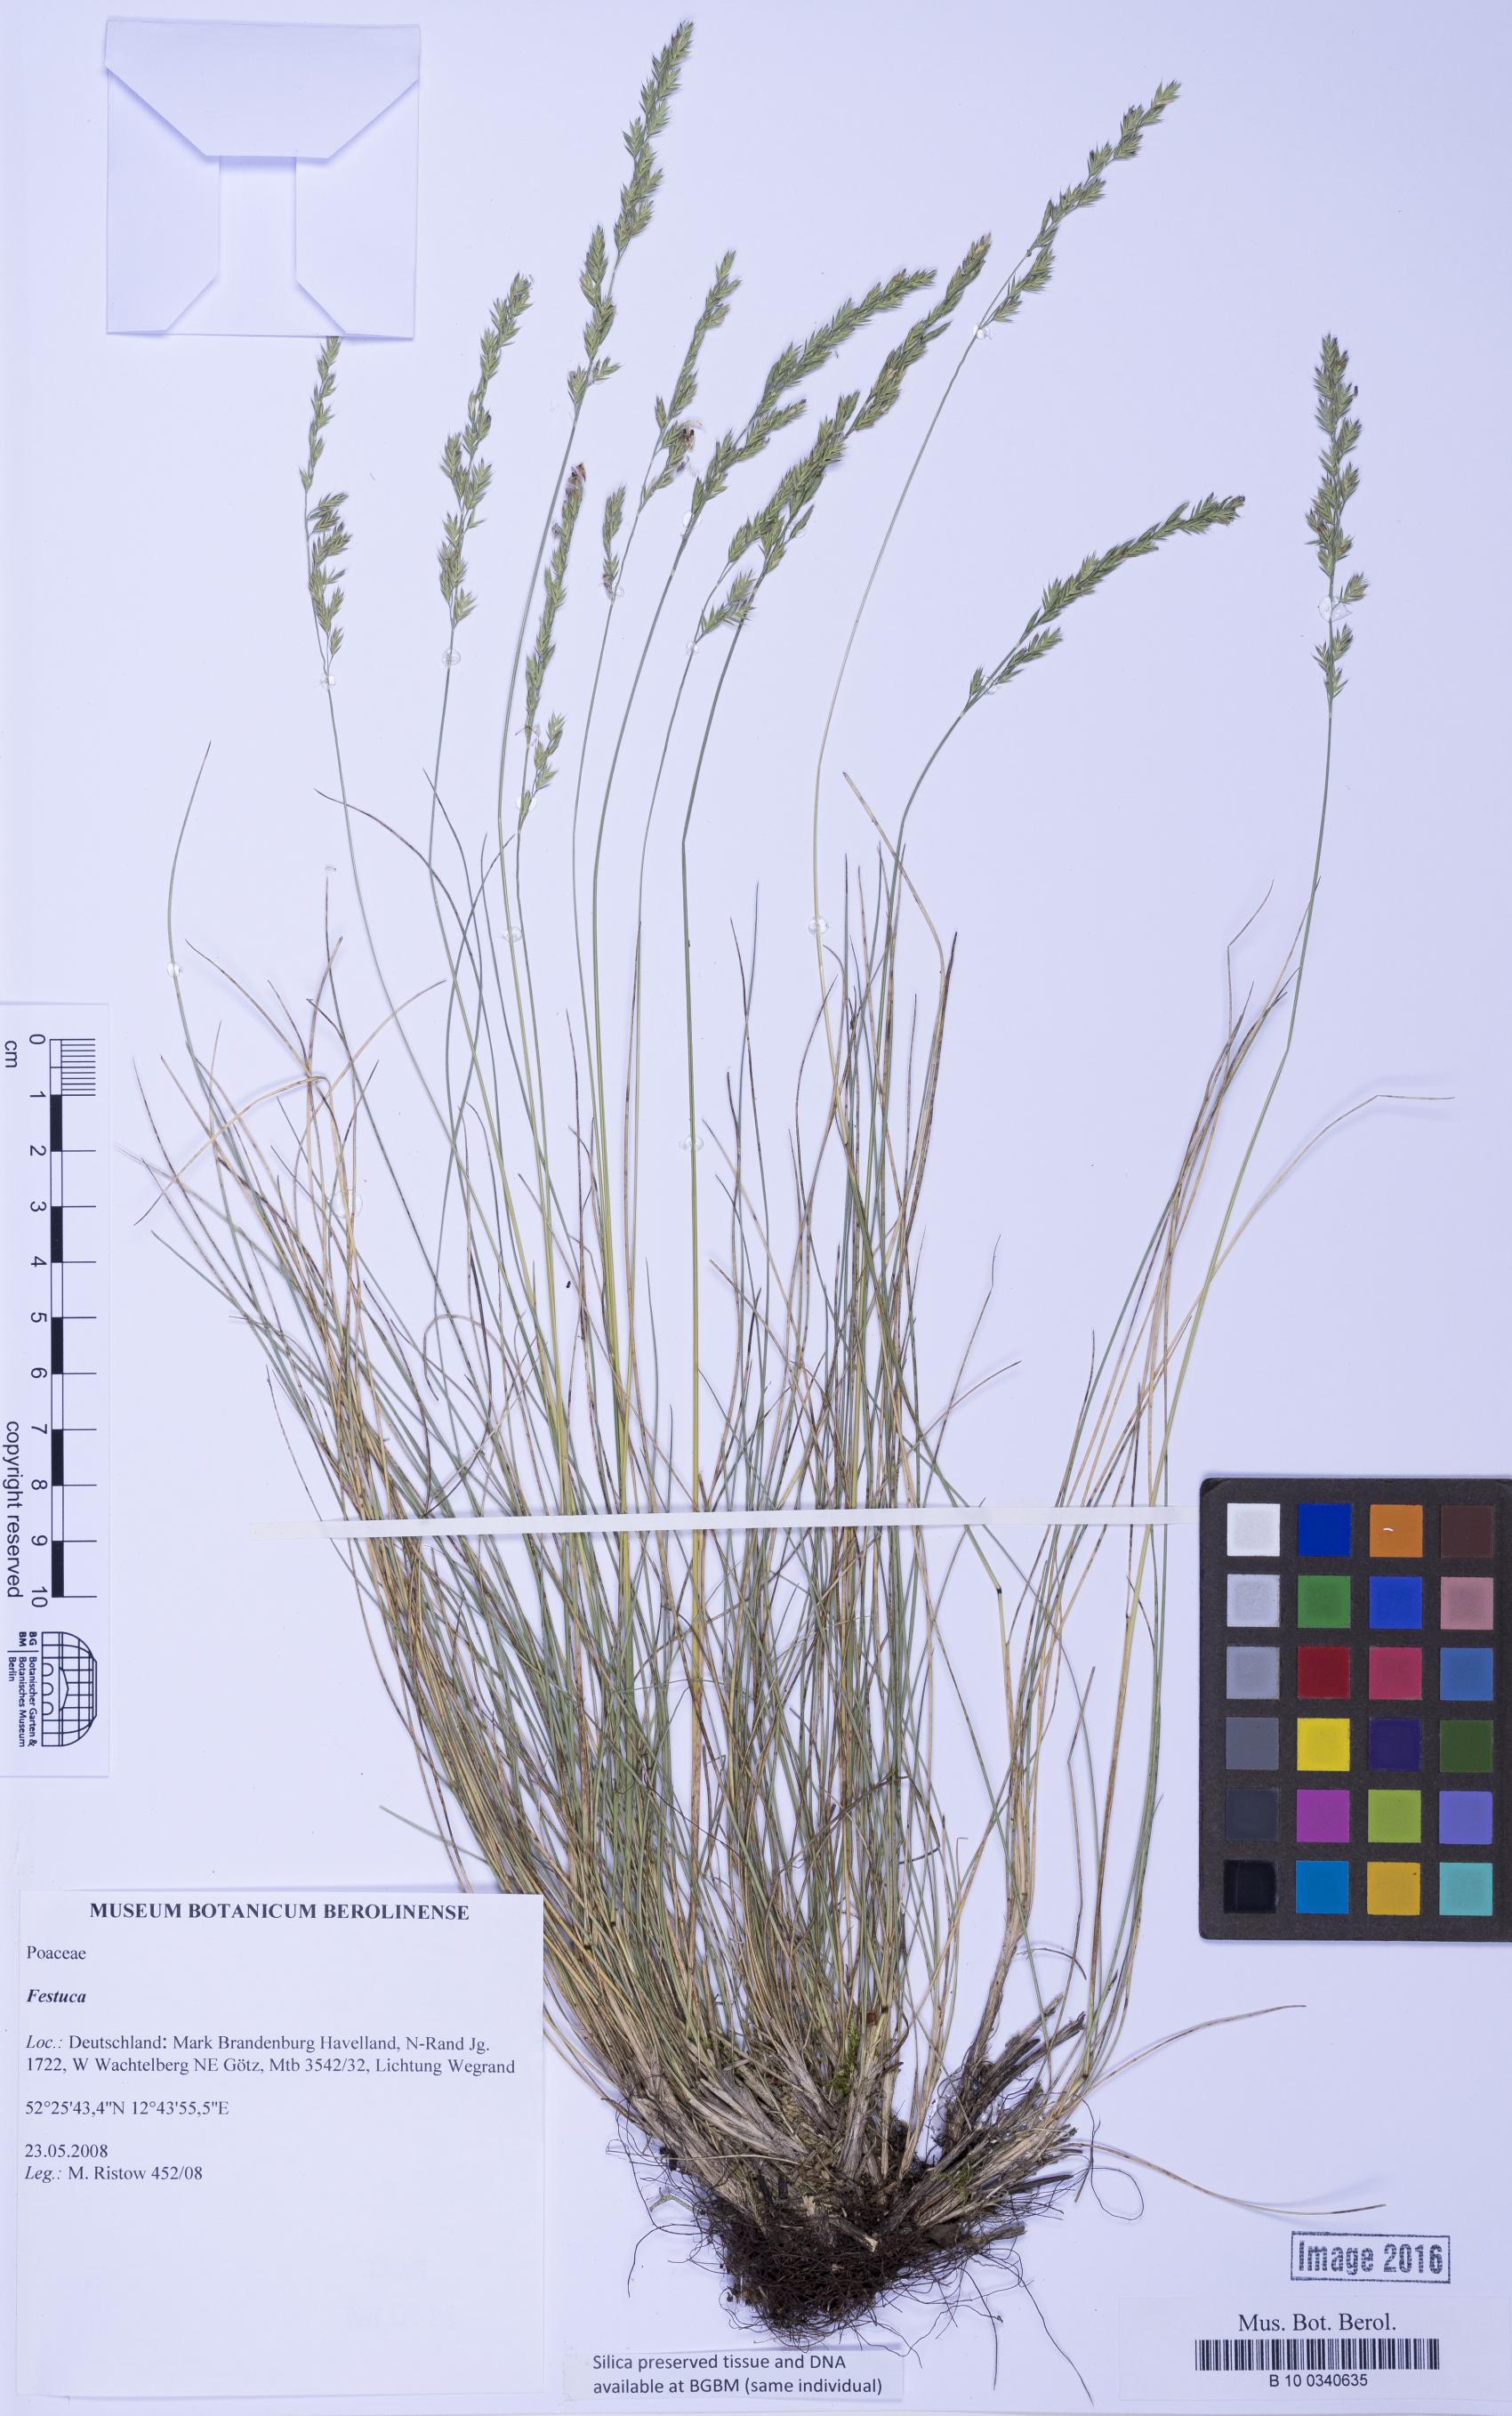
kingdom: Plantae
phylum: Tracheophyta
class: Liliopsida
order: Poales
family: Poaceae
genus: Festuca
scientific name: Festuca
